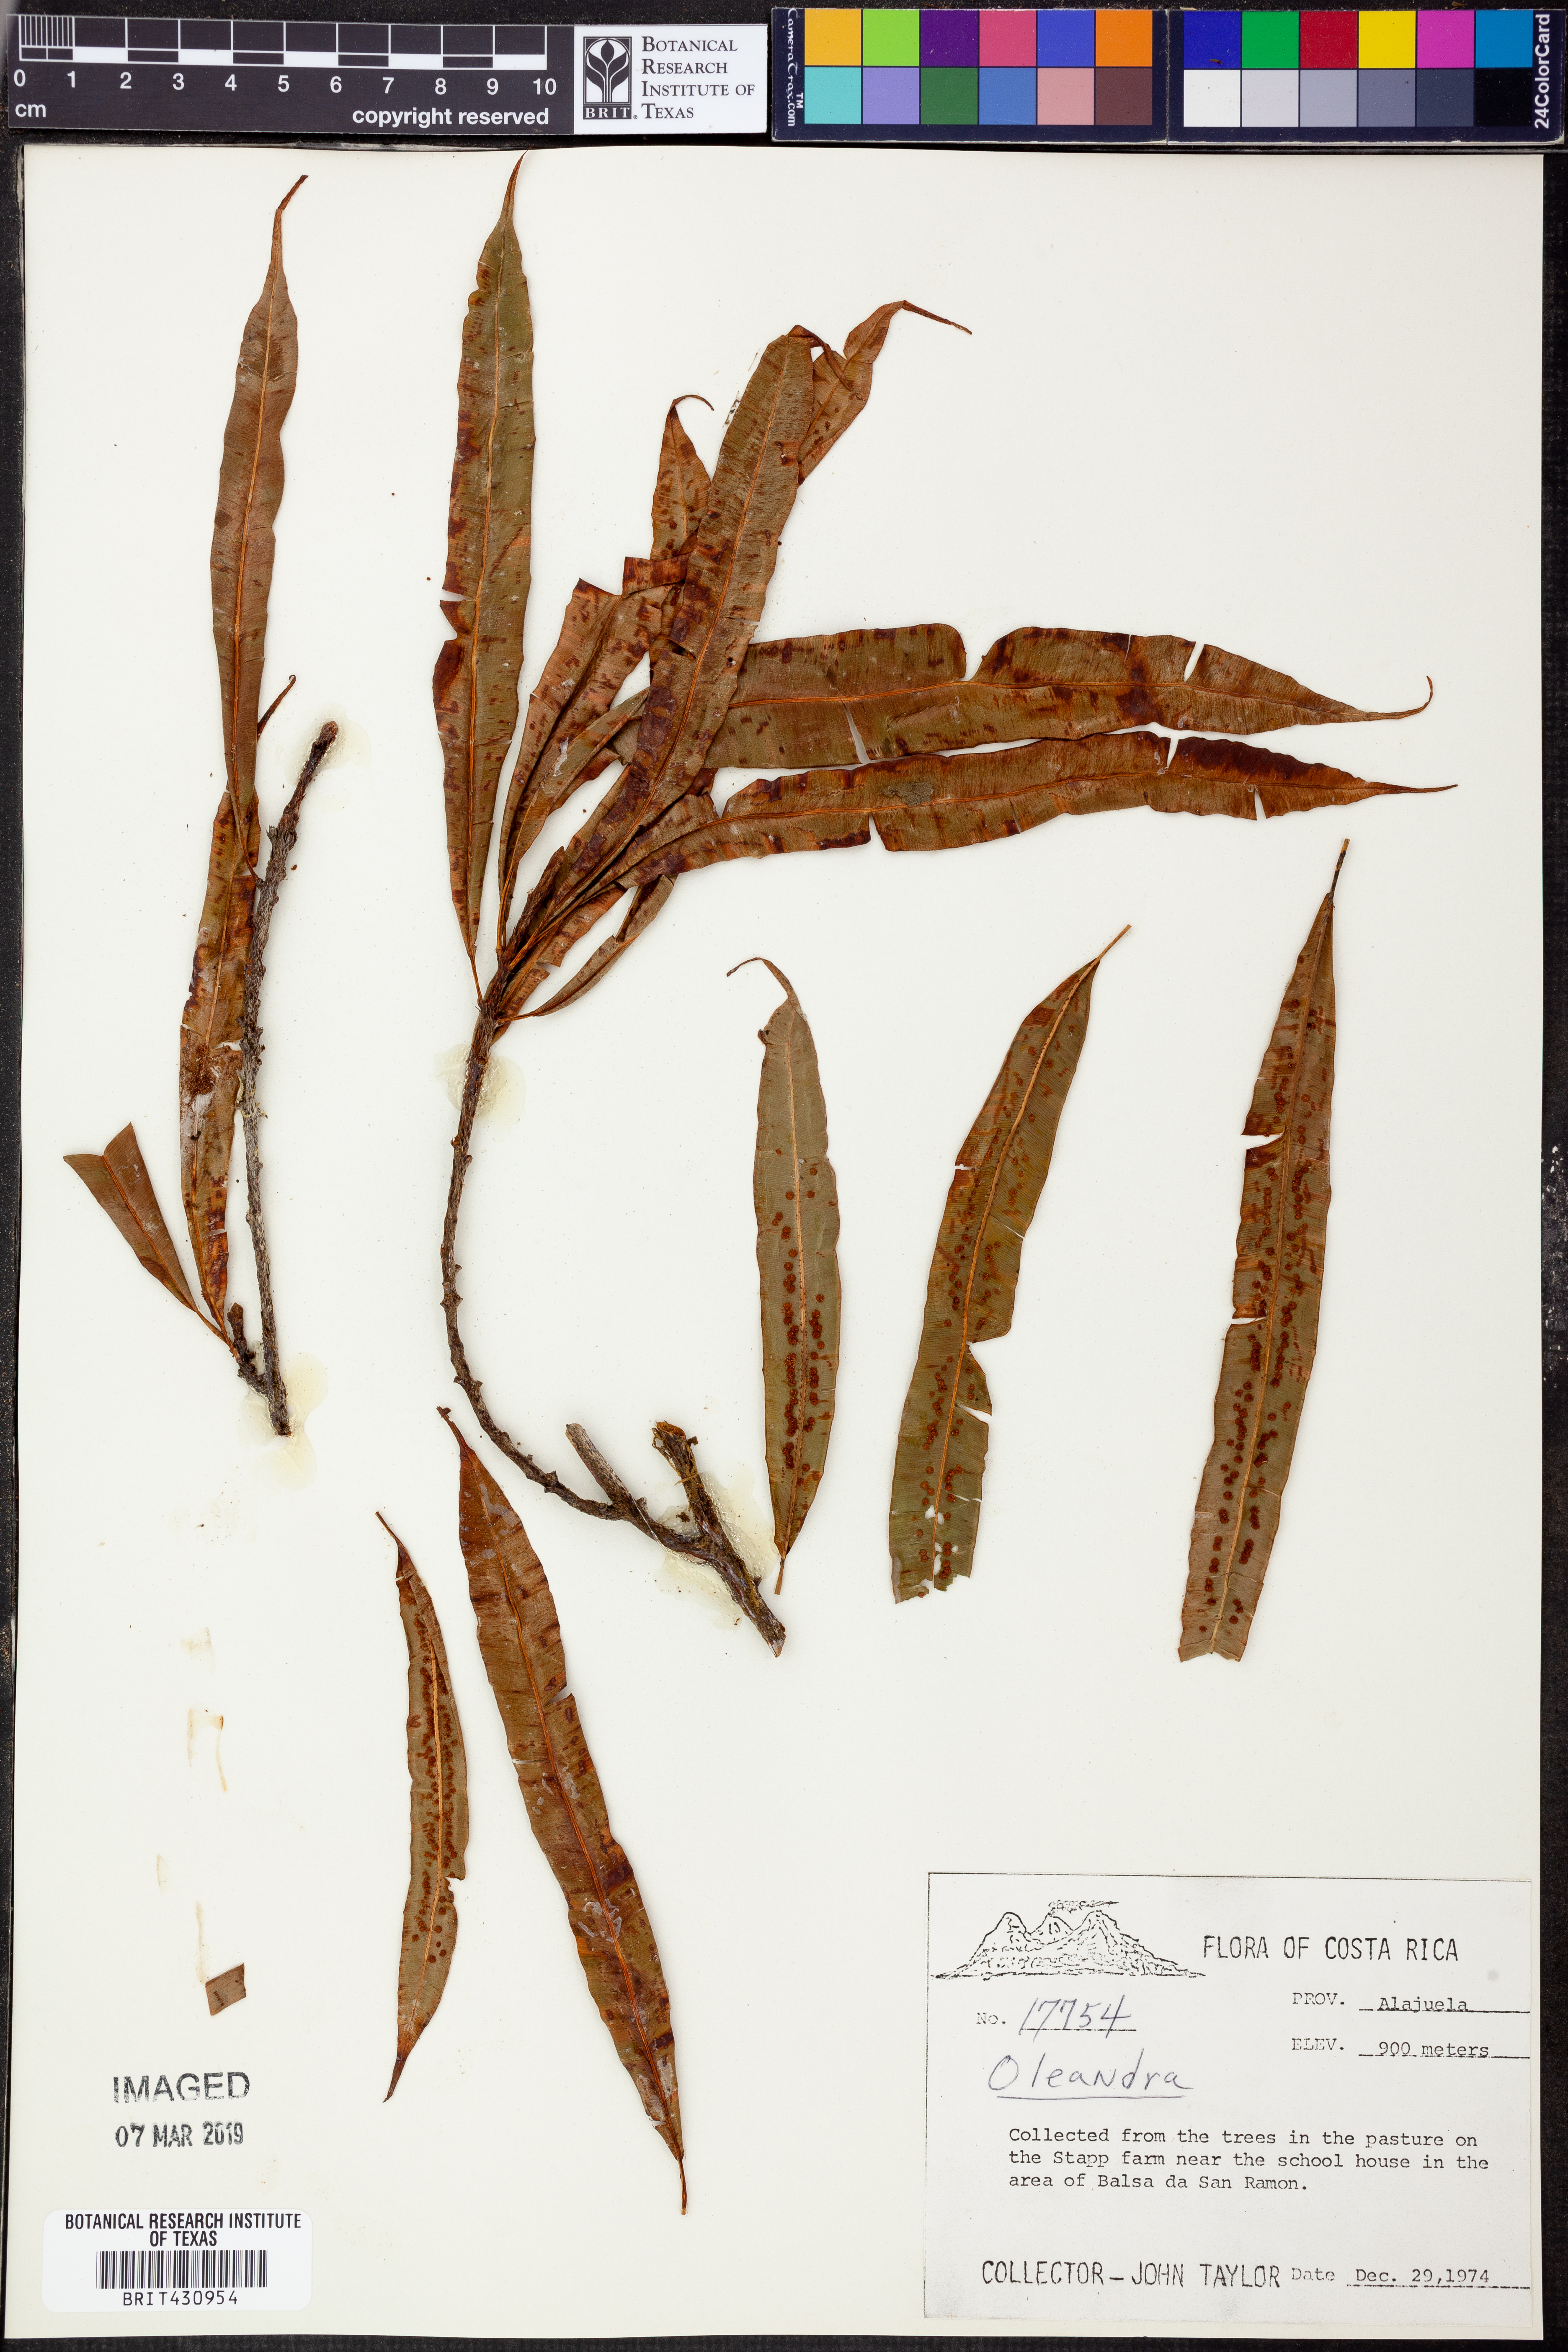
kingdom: Plantae
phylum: Tracheophyta
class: Polypodiopsida
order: Polypodiales
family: Oleandraceae
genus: Oleandra
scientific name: Oleandra
